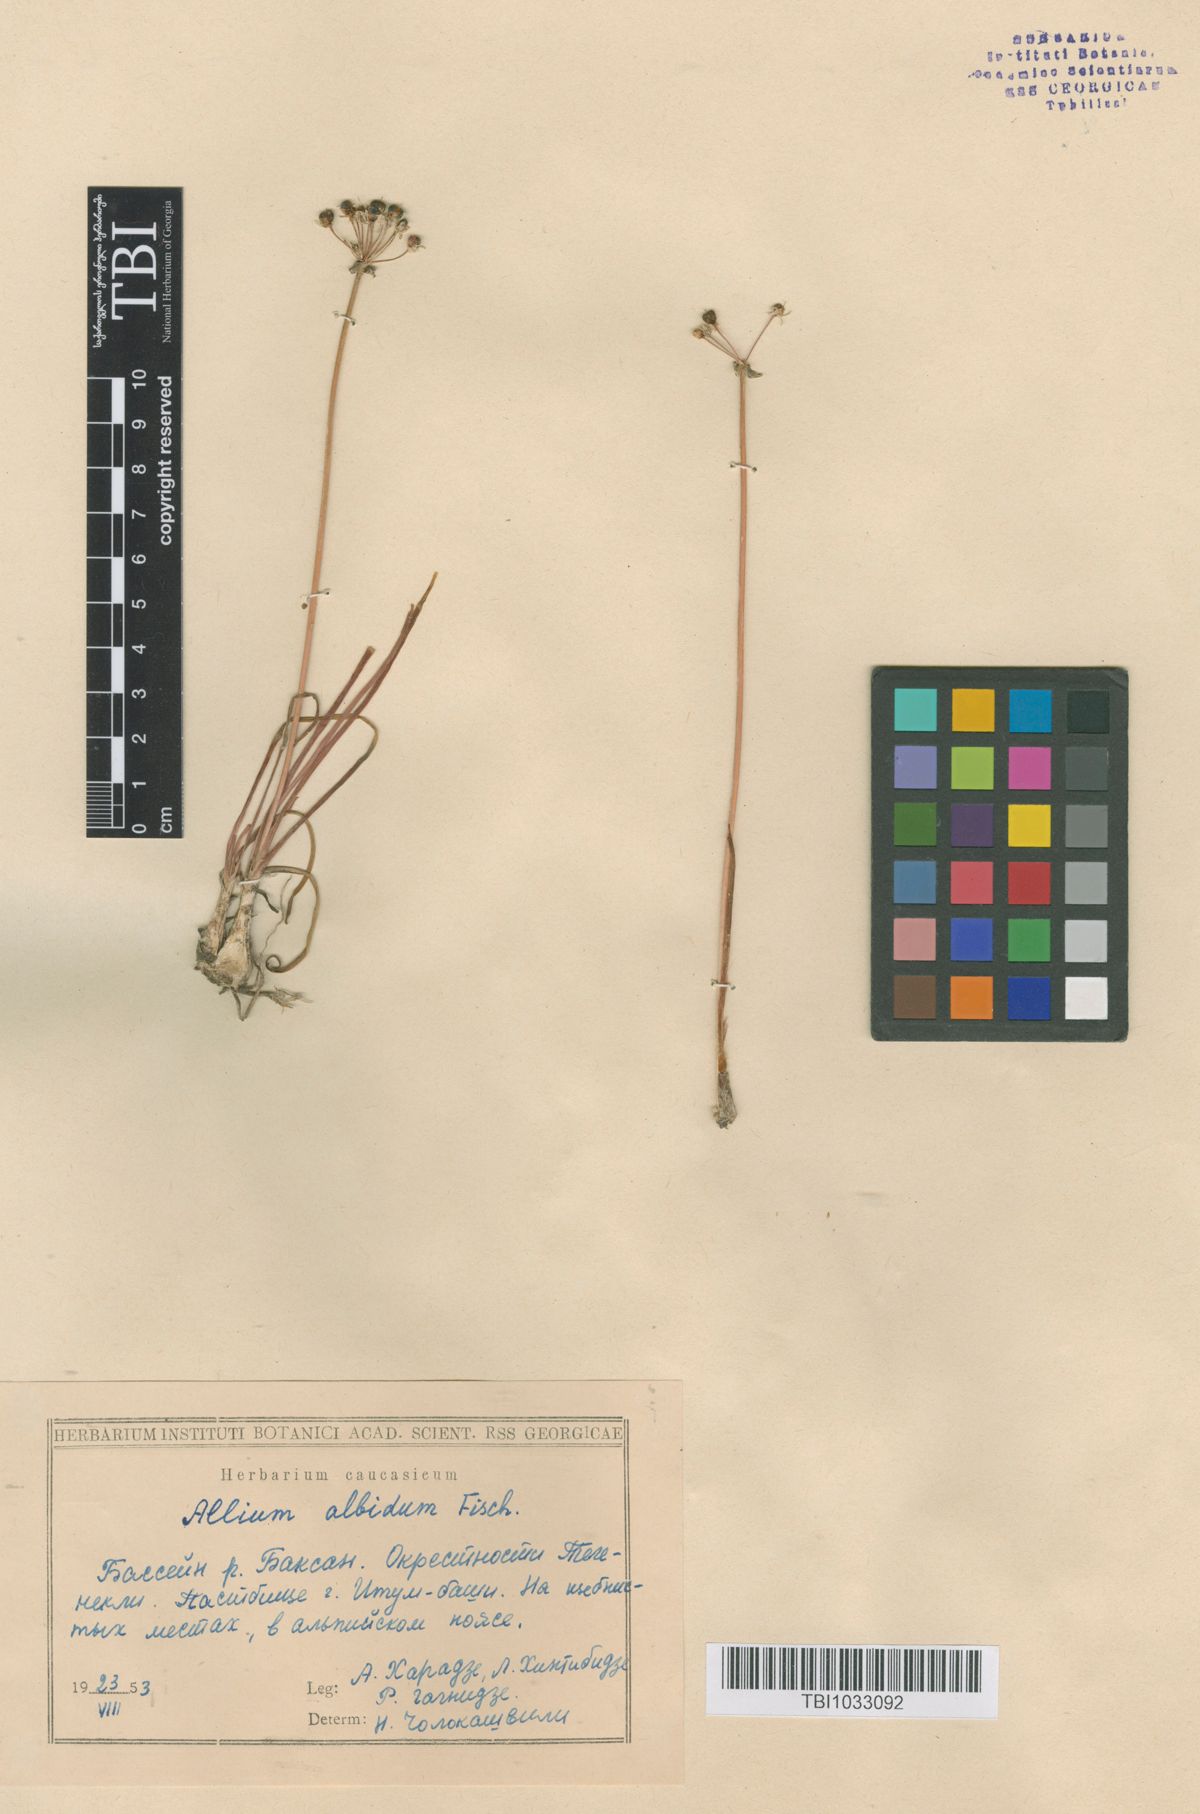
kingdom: Plantae
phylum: Tracheophyta
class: Liliopsida
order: Asparagales
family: Amaryllidaceae
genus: Allium
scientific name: Allium denudatum
